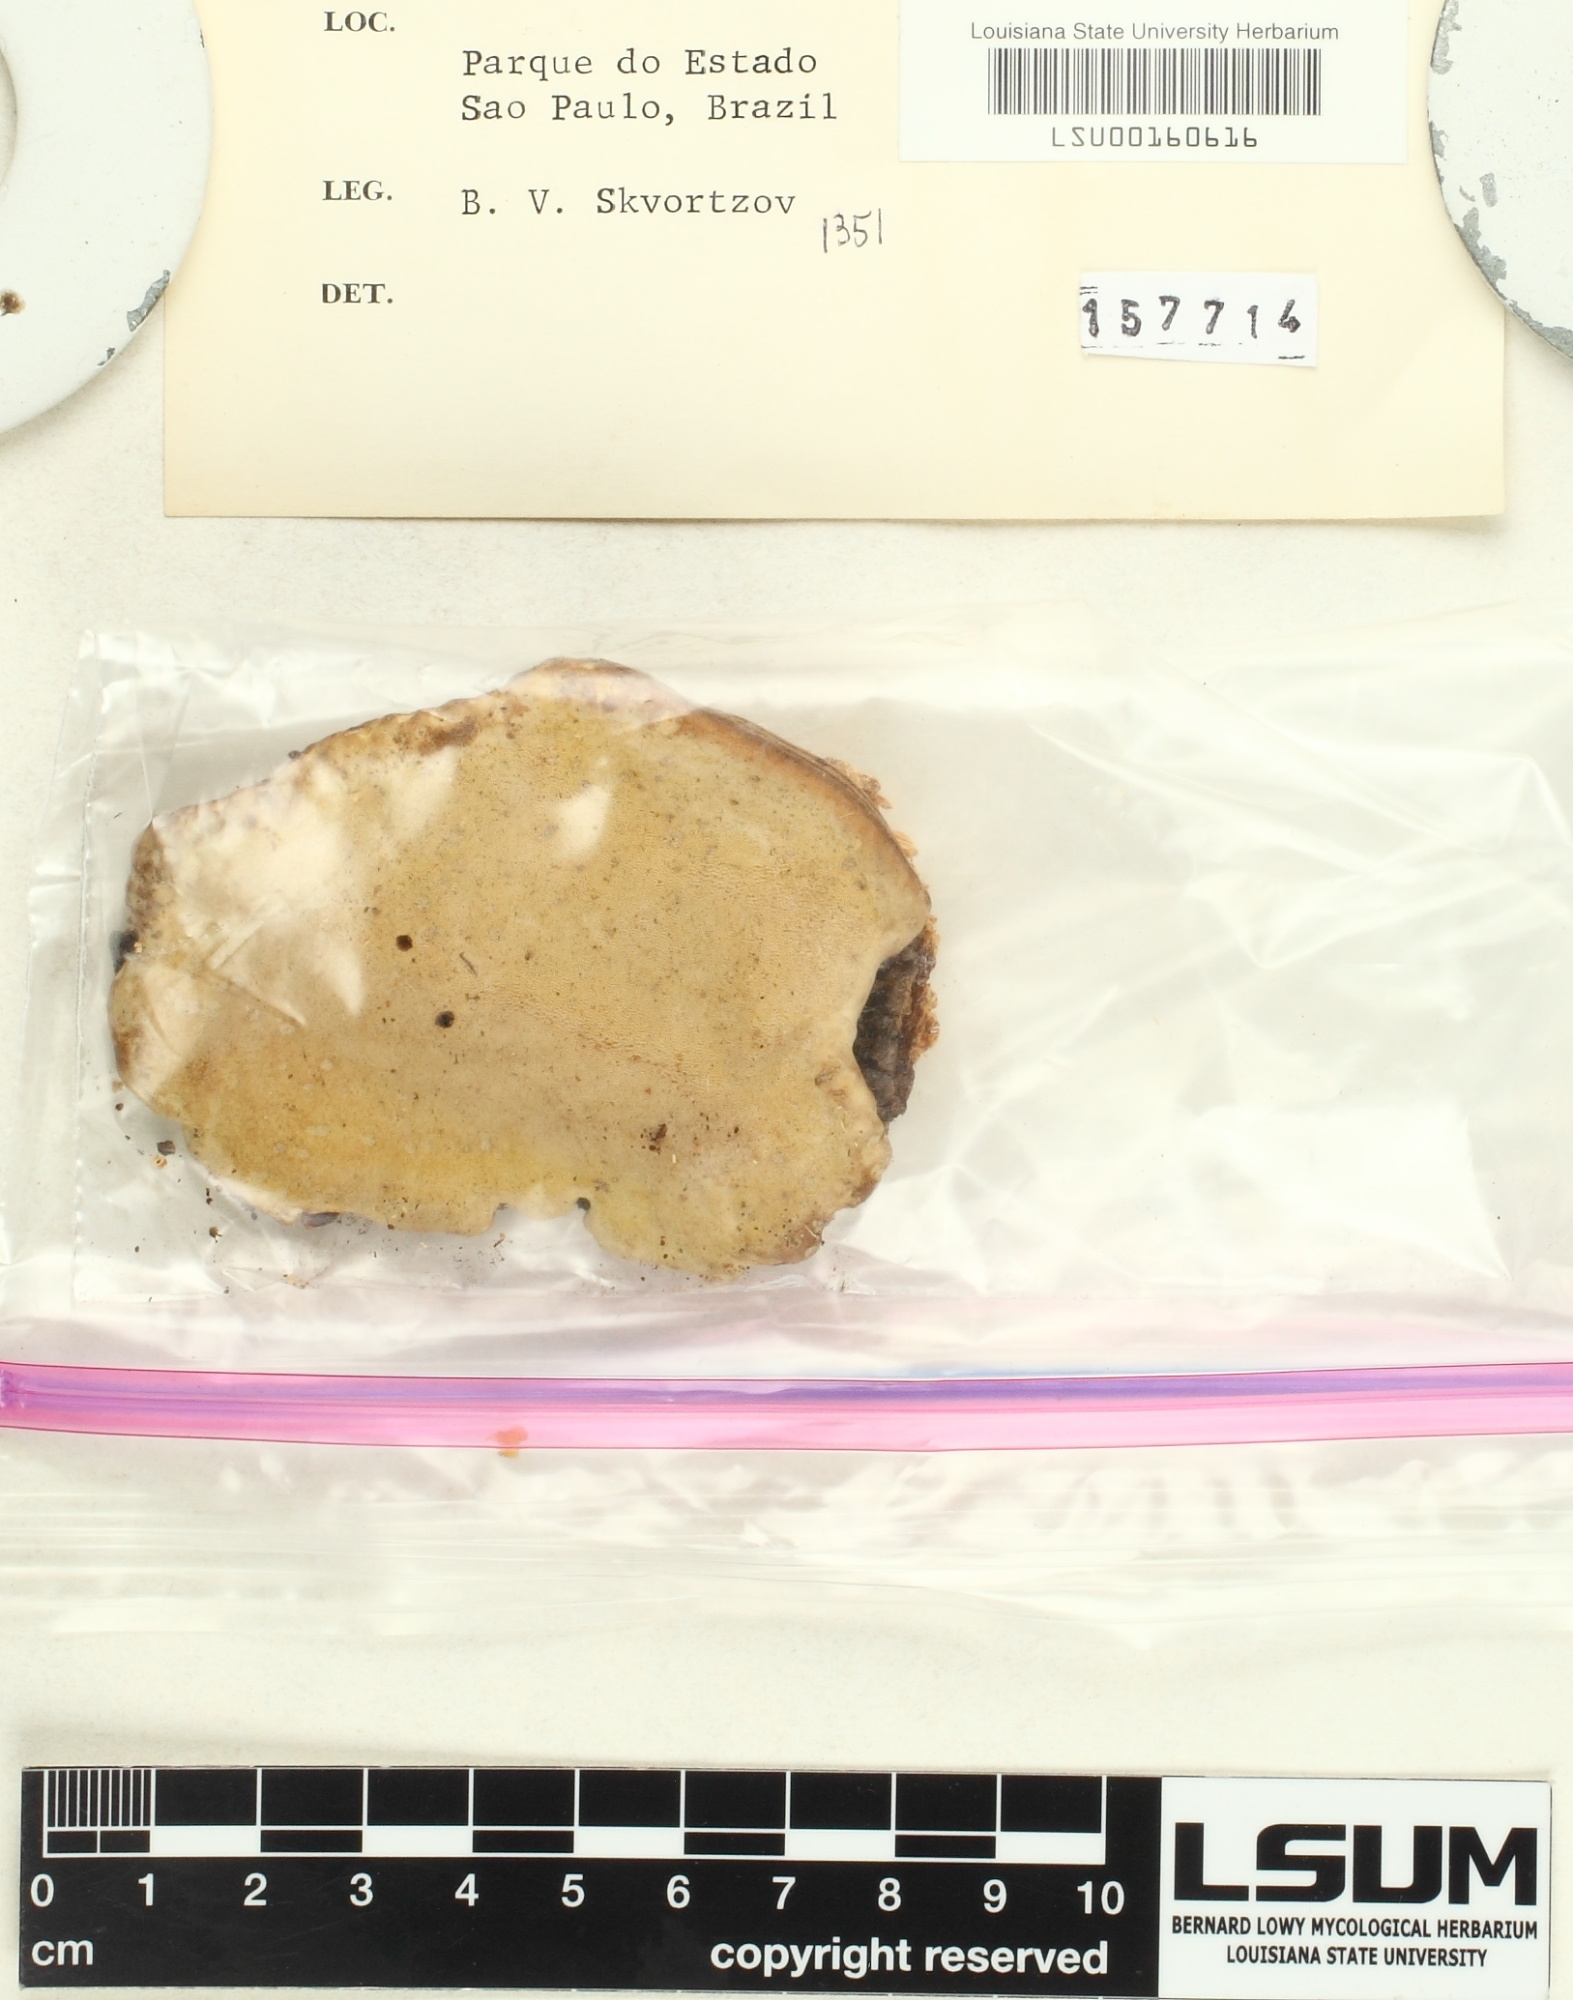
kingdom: Fungi
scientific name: Fungi
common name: Fungi
